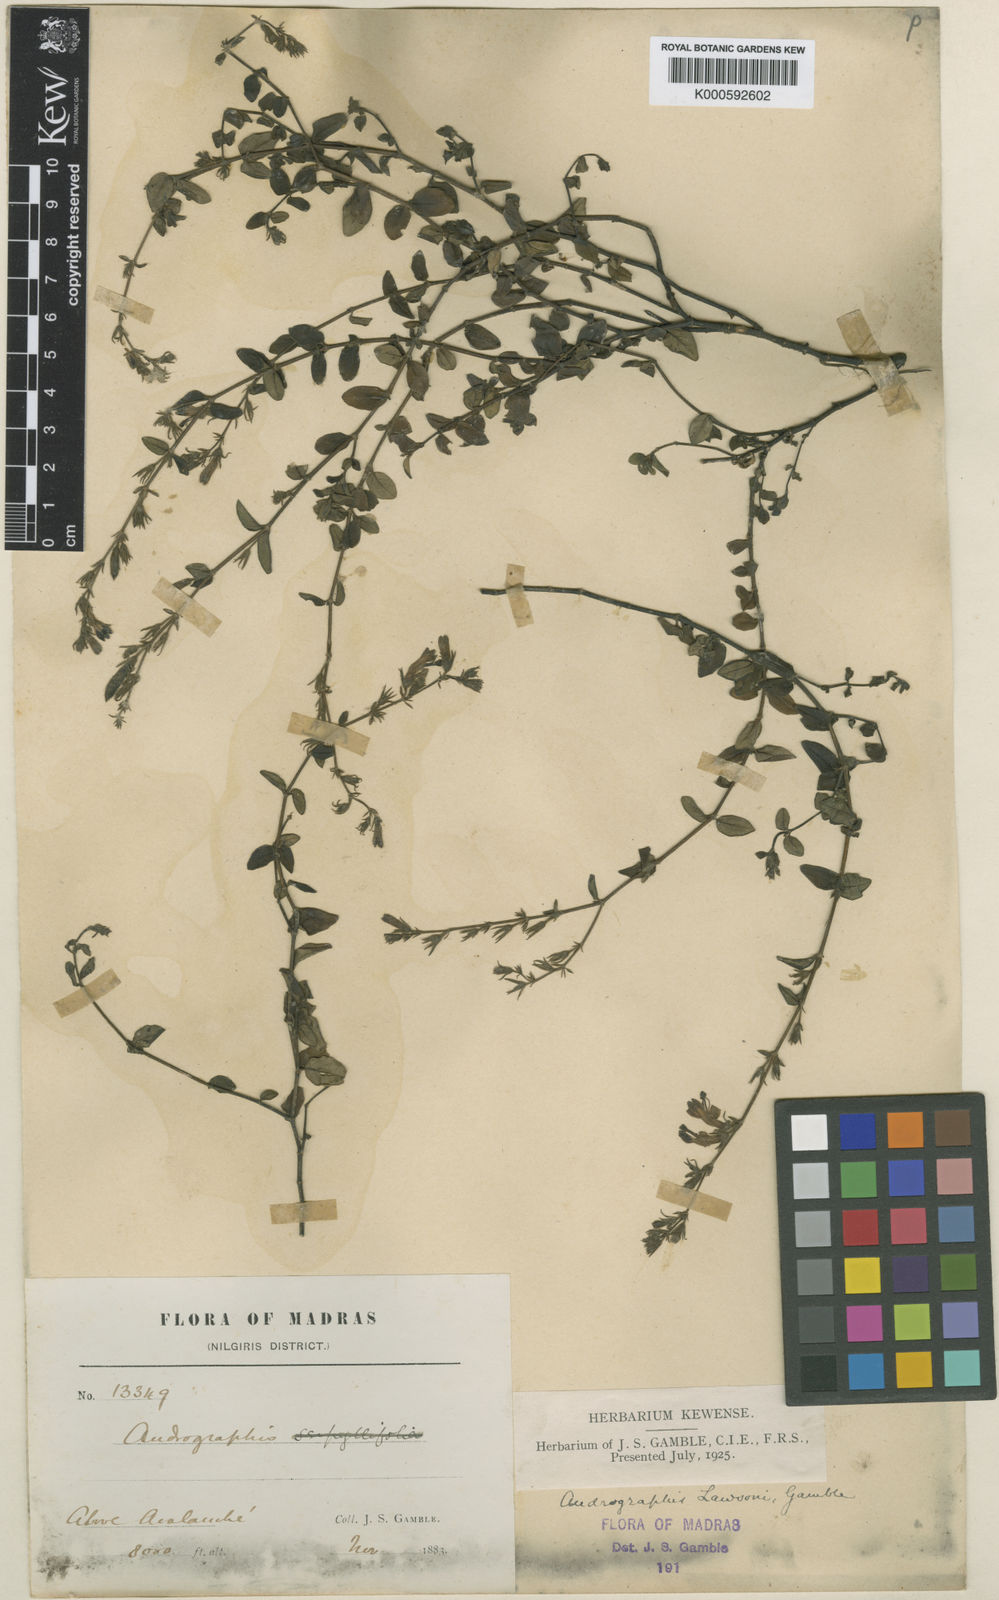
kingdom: Plantae
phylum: Tracheophyta
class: Magnoliopsida
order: Lamiales
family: Acanthaceae
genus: Andrographis
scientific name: Andrographis lawsonii
